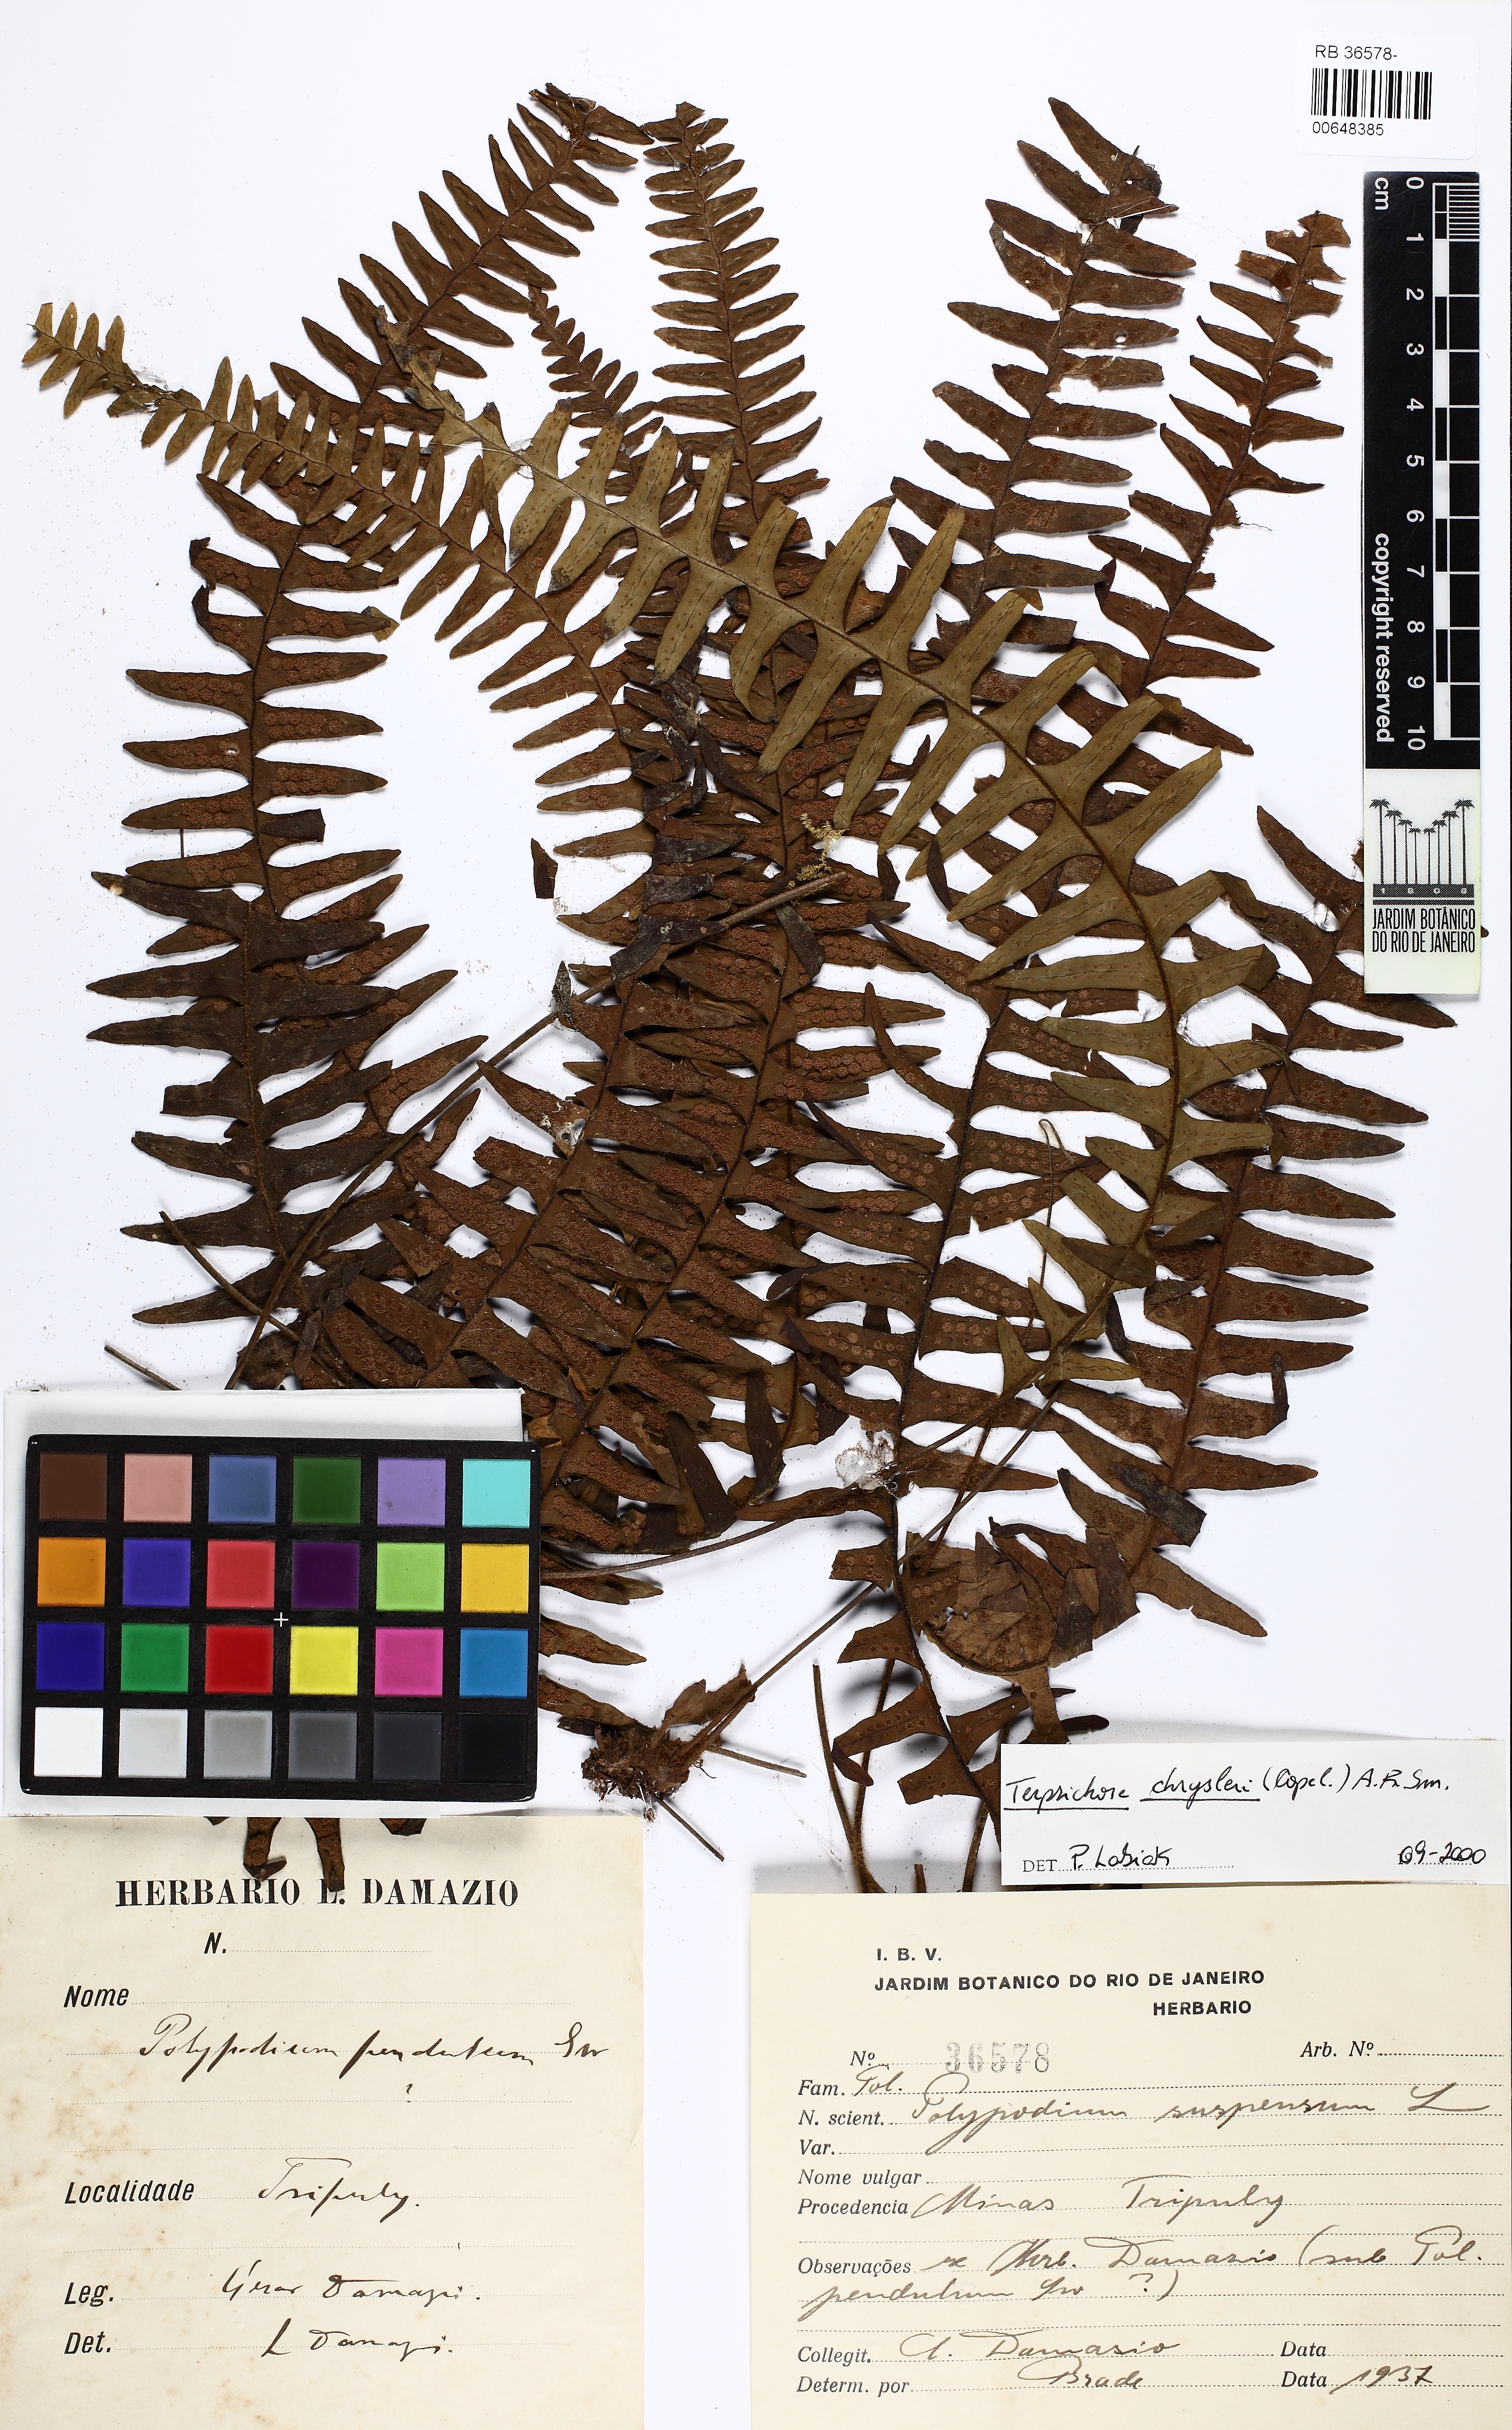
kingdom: Plantae
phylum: Tracheophyta
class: Polypodiopsida
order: Polypodiales
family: Polypodiaceae
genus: Terpsichore
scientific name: Terpsichore chrysleri
